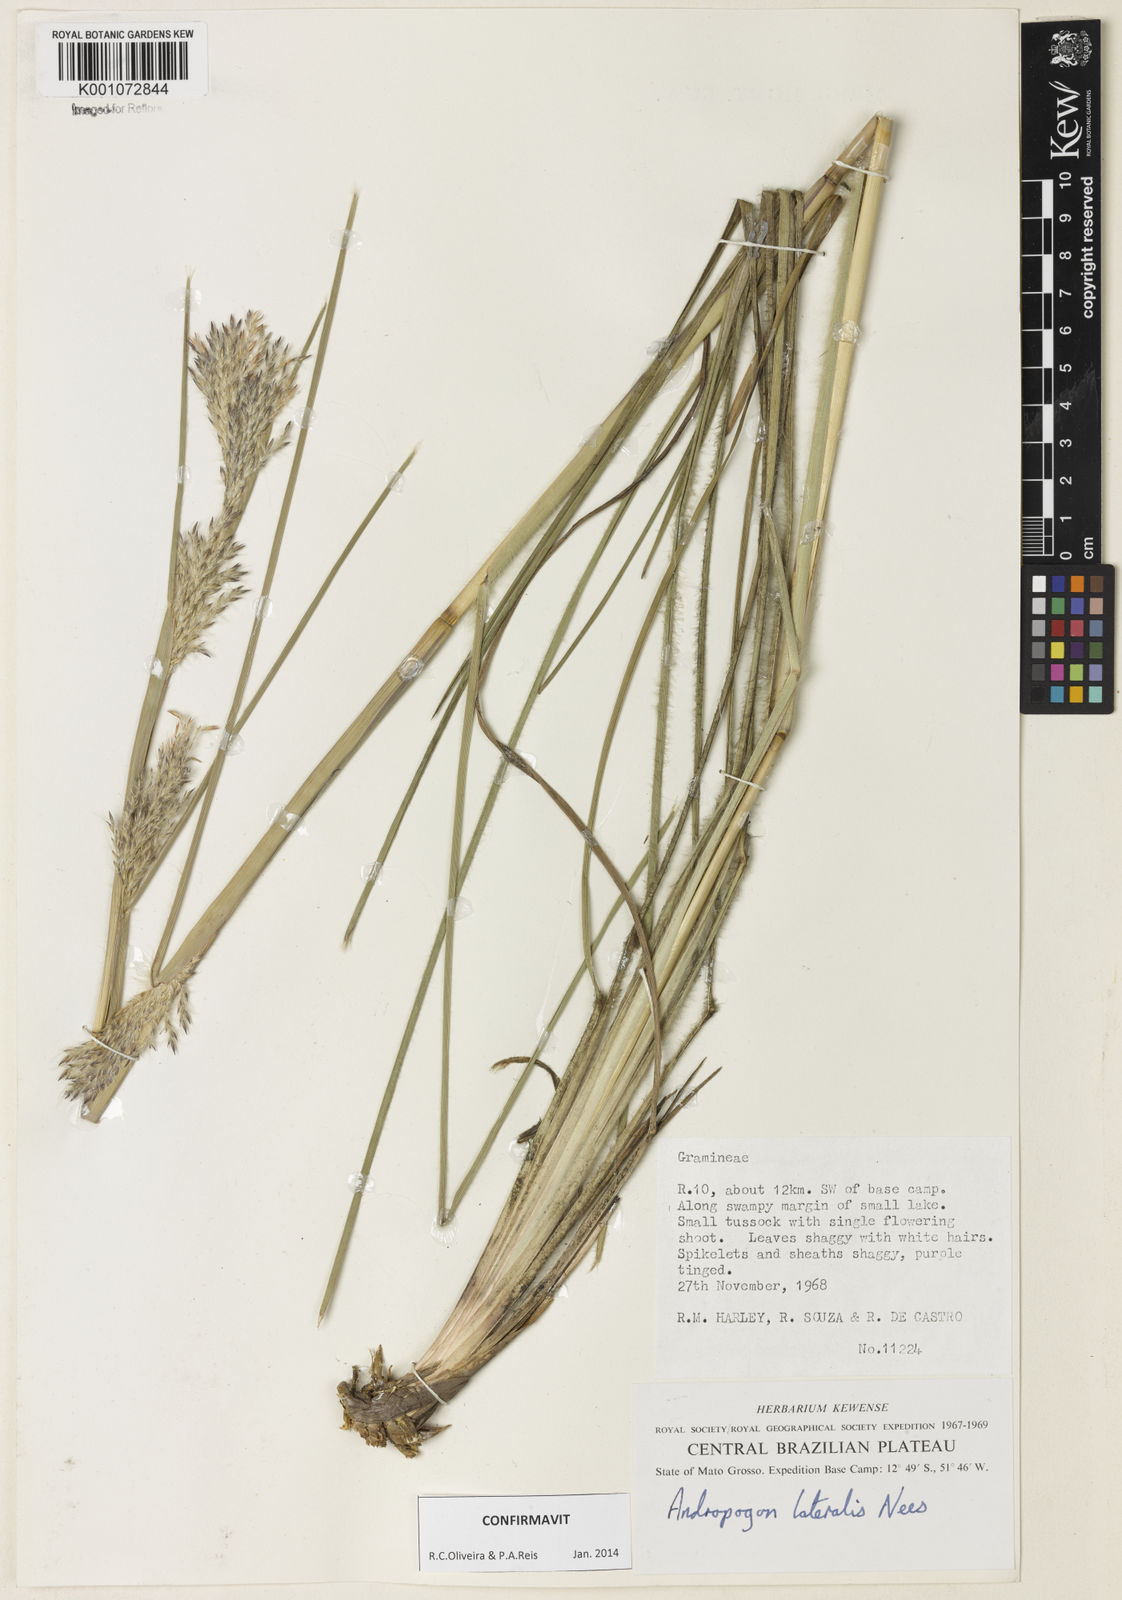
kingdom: Plantae
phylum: Tracheophyta
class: Liliopsida
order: Poales
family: Poaceae
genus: Andropogon
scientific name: Andropogon lateralis
